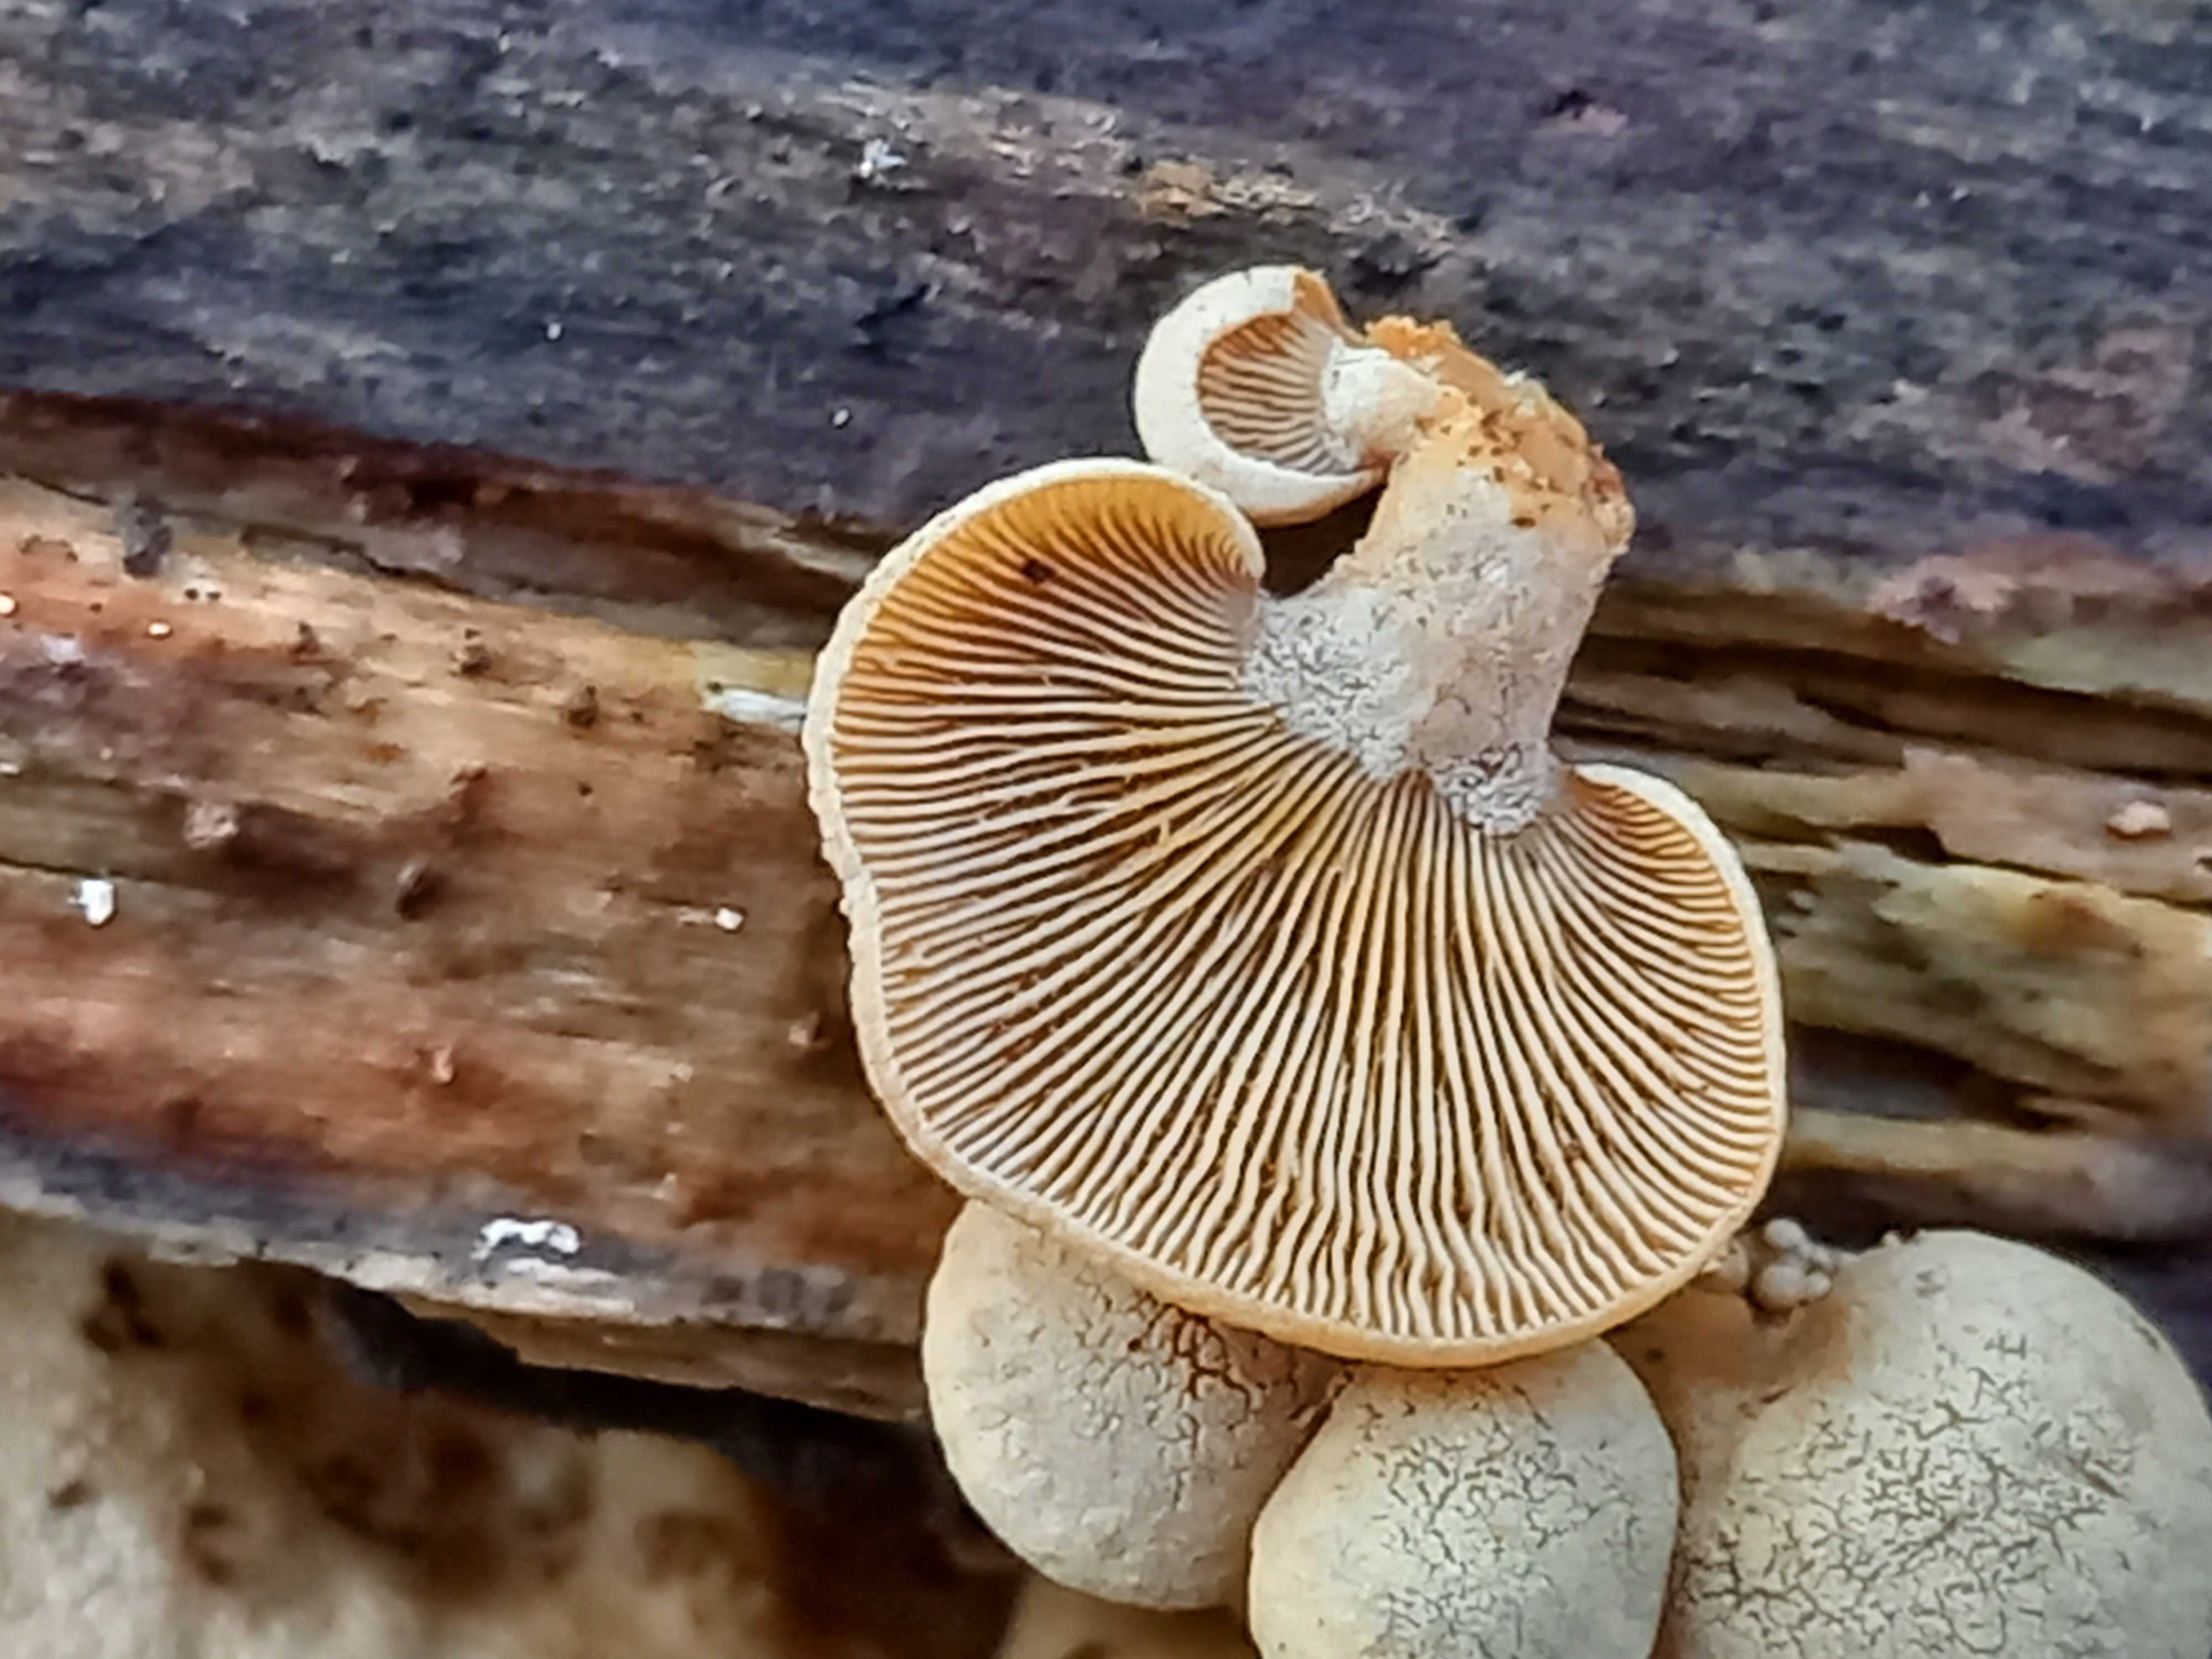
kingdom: Fungi
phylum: Basidiomycota
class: Agaricomycetes
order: Agaricales
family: Mycenaceae
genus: Panellus
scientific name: Panellus stipticus
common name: kliddet epaulethat
